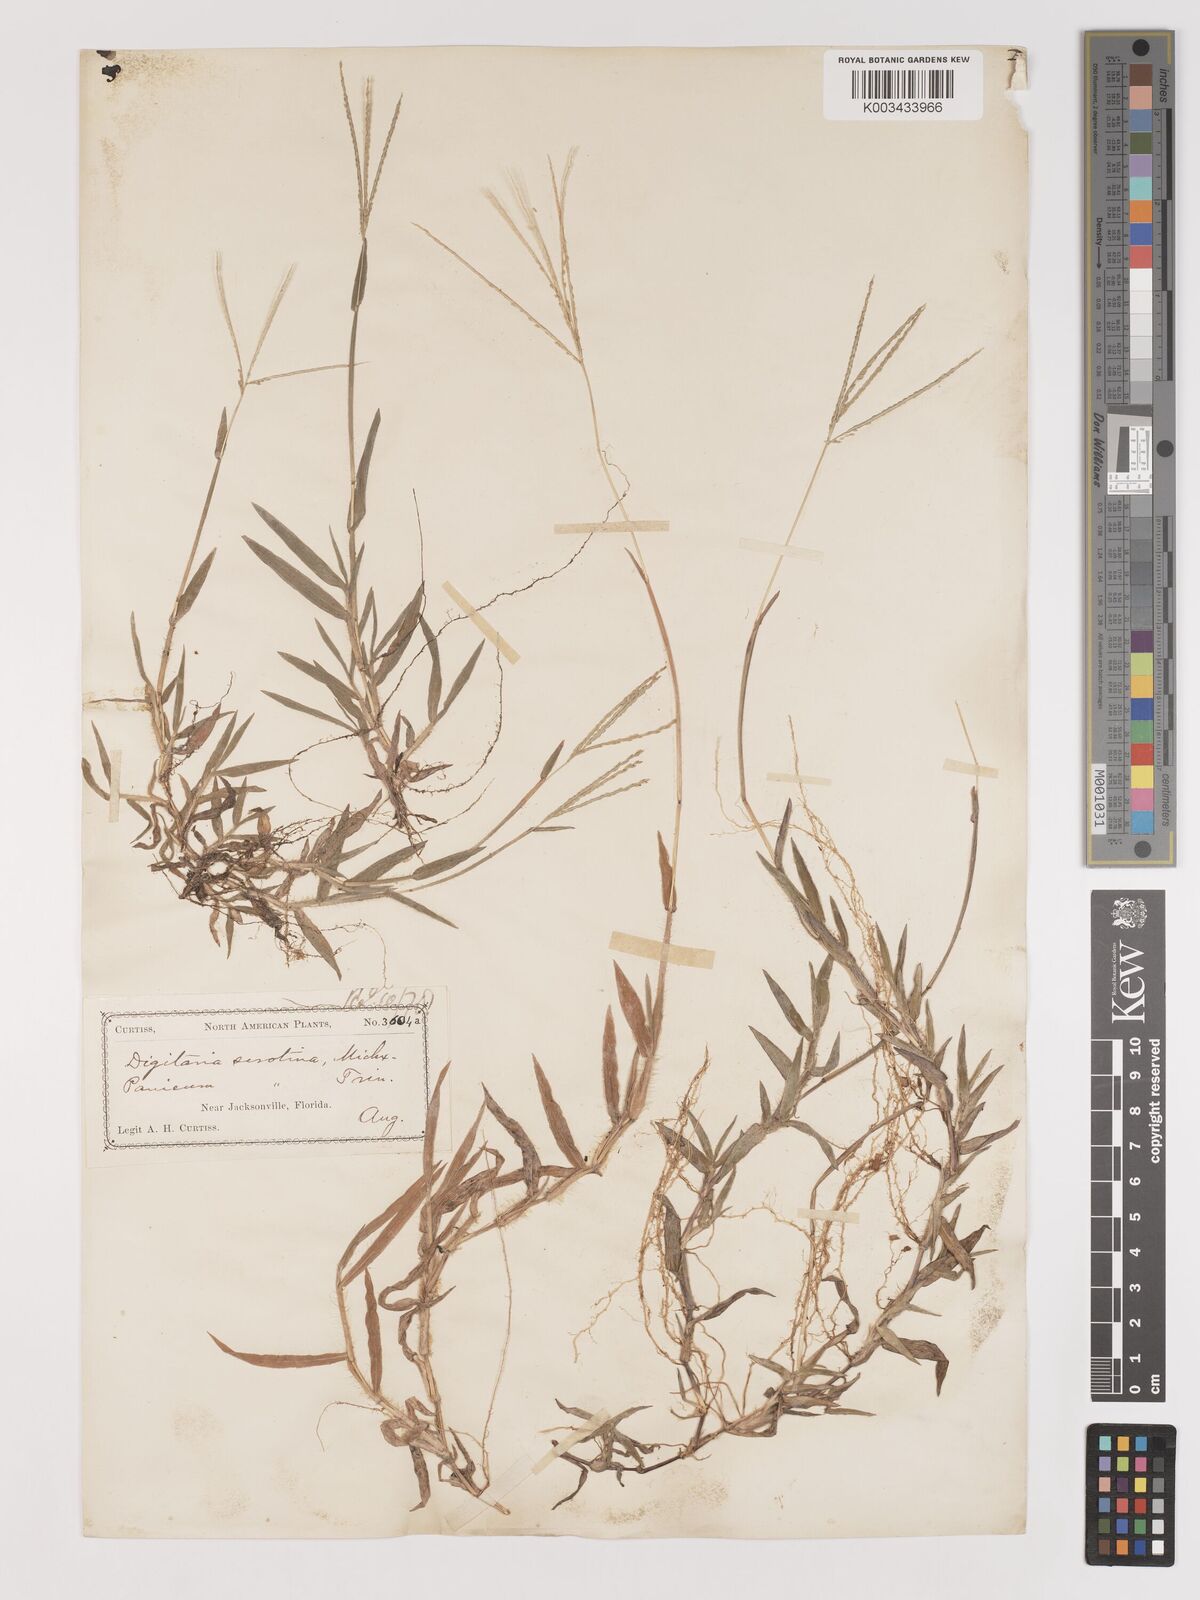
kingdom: Plantae
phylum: Tracheophyta
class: Liliopsida
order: Poales
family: Poaceae
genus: Digitaria
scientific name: Digitaria serotina
